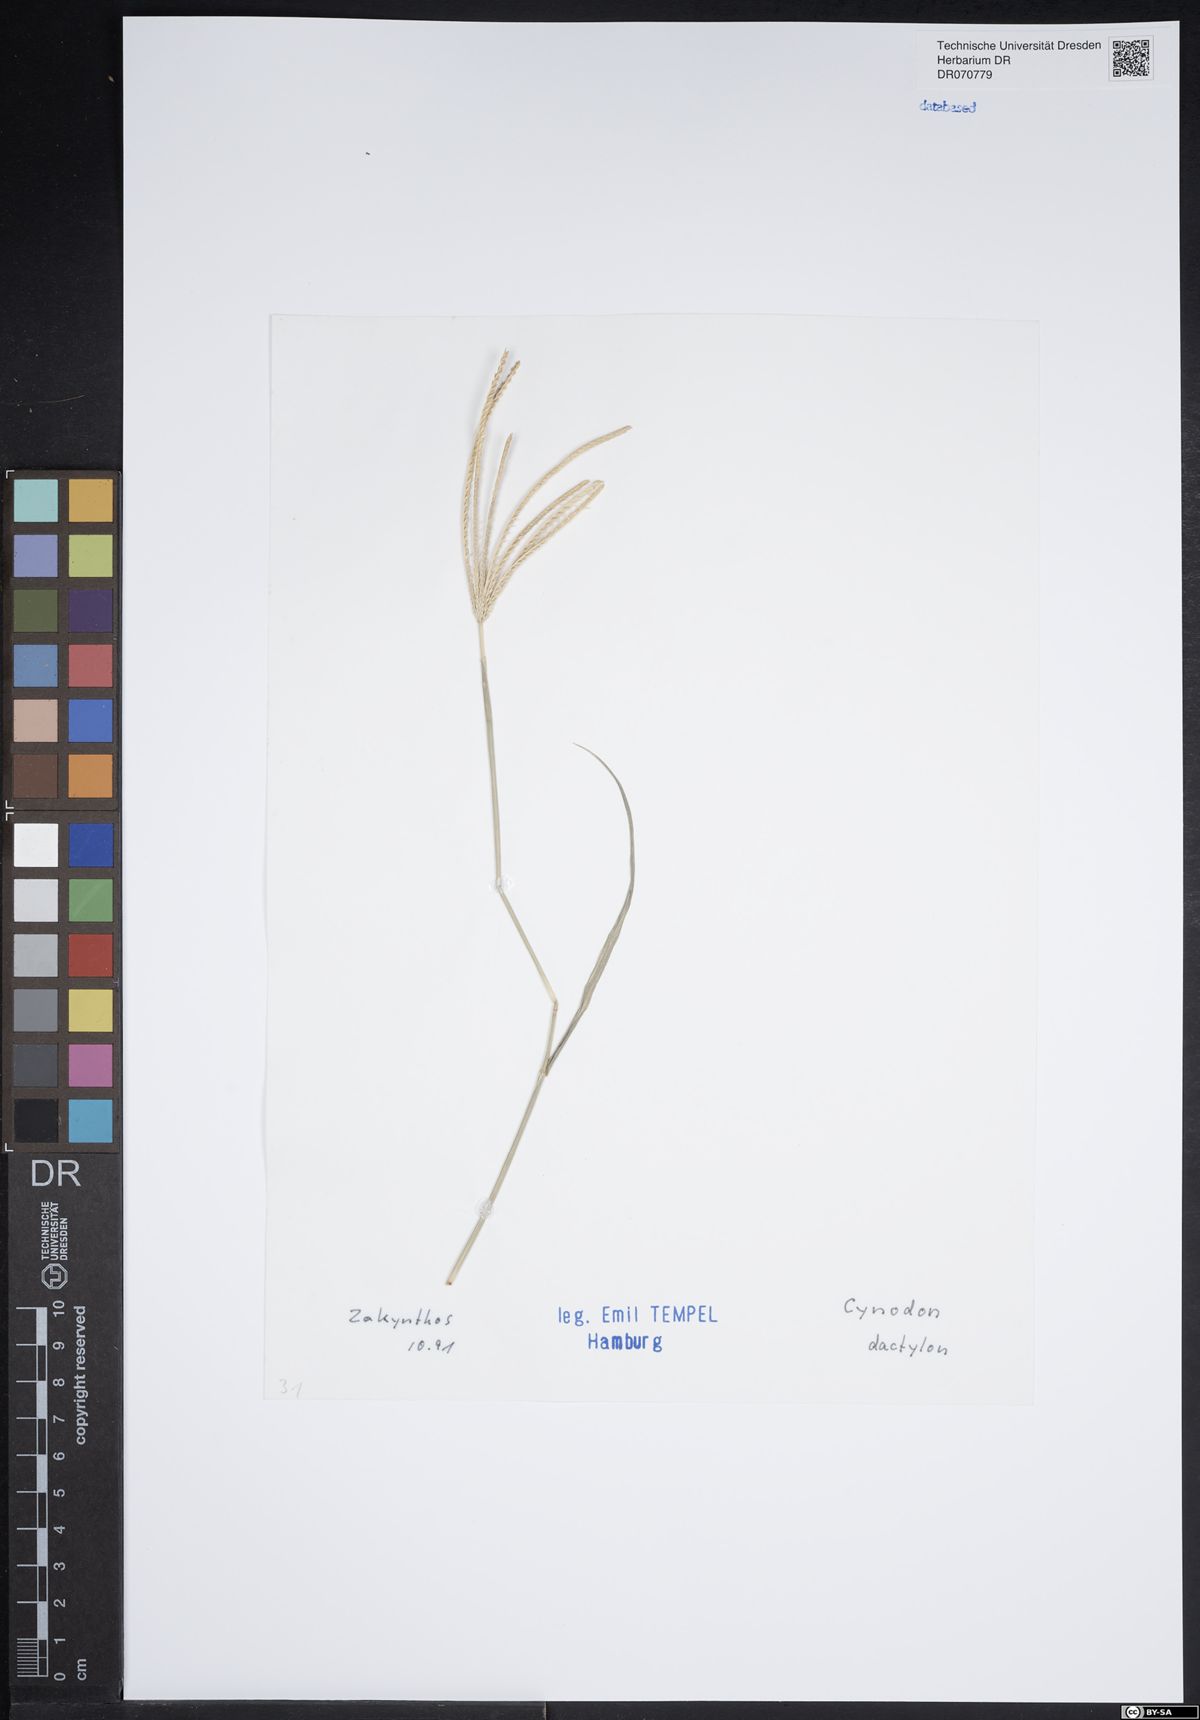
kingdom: Plantae
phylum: Tracheophyta
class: Liliopsida
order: Poales
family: Poaceae
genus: Cynodon
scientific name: Cynodon dactylon
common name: Bermuda grass
